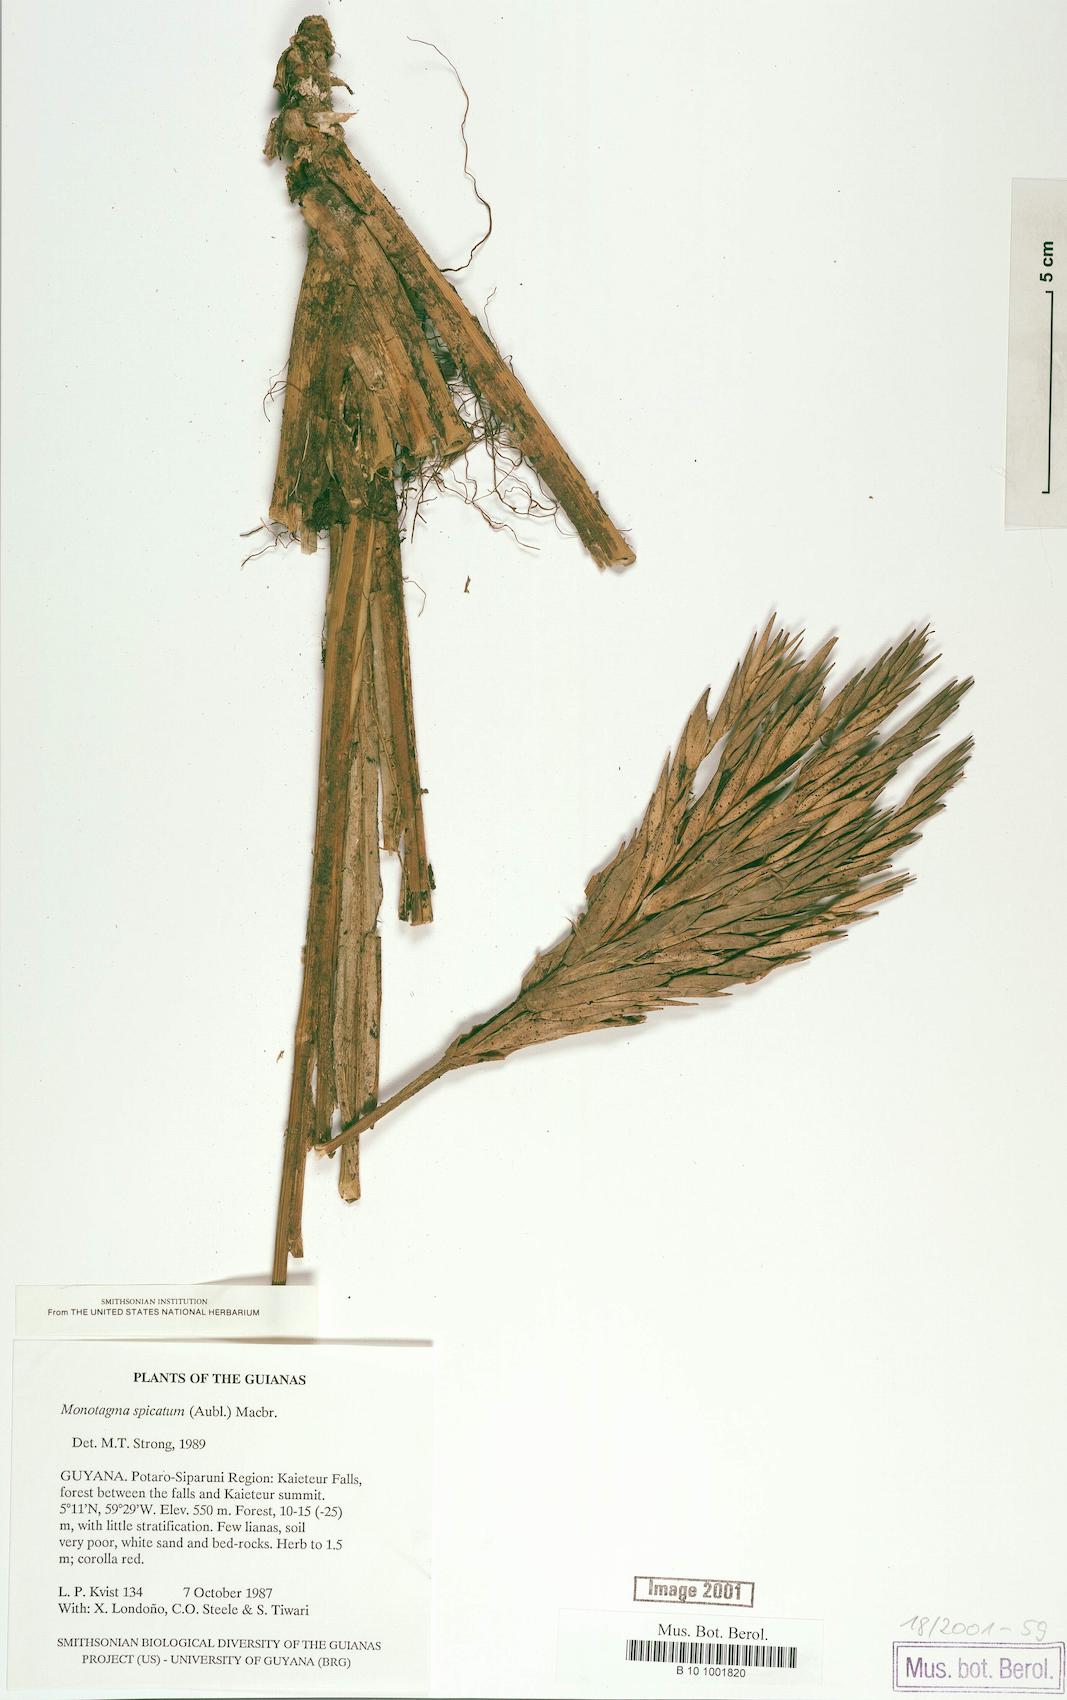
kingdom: Plantae
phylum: Tracheophyta
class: Liliopsida
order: Zingiberales
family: Marantaceae
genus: Monotagma
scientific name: Monotagma spicatum
